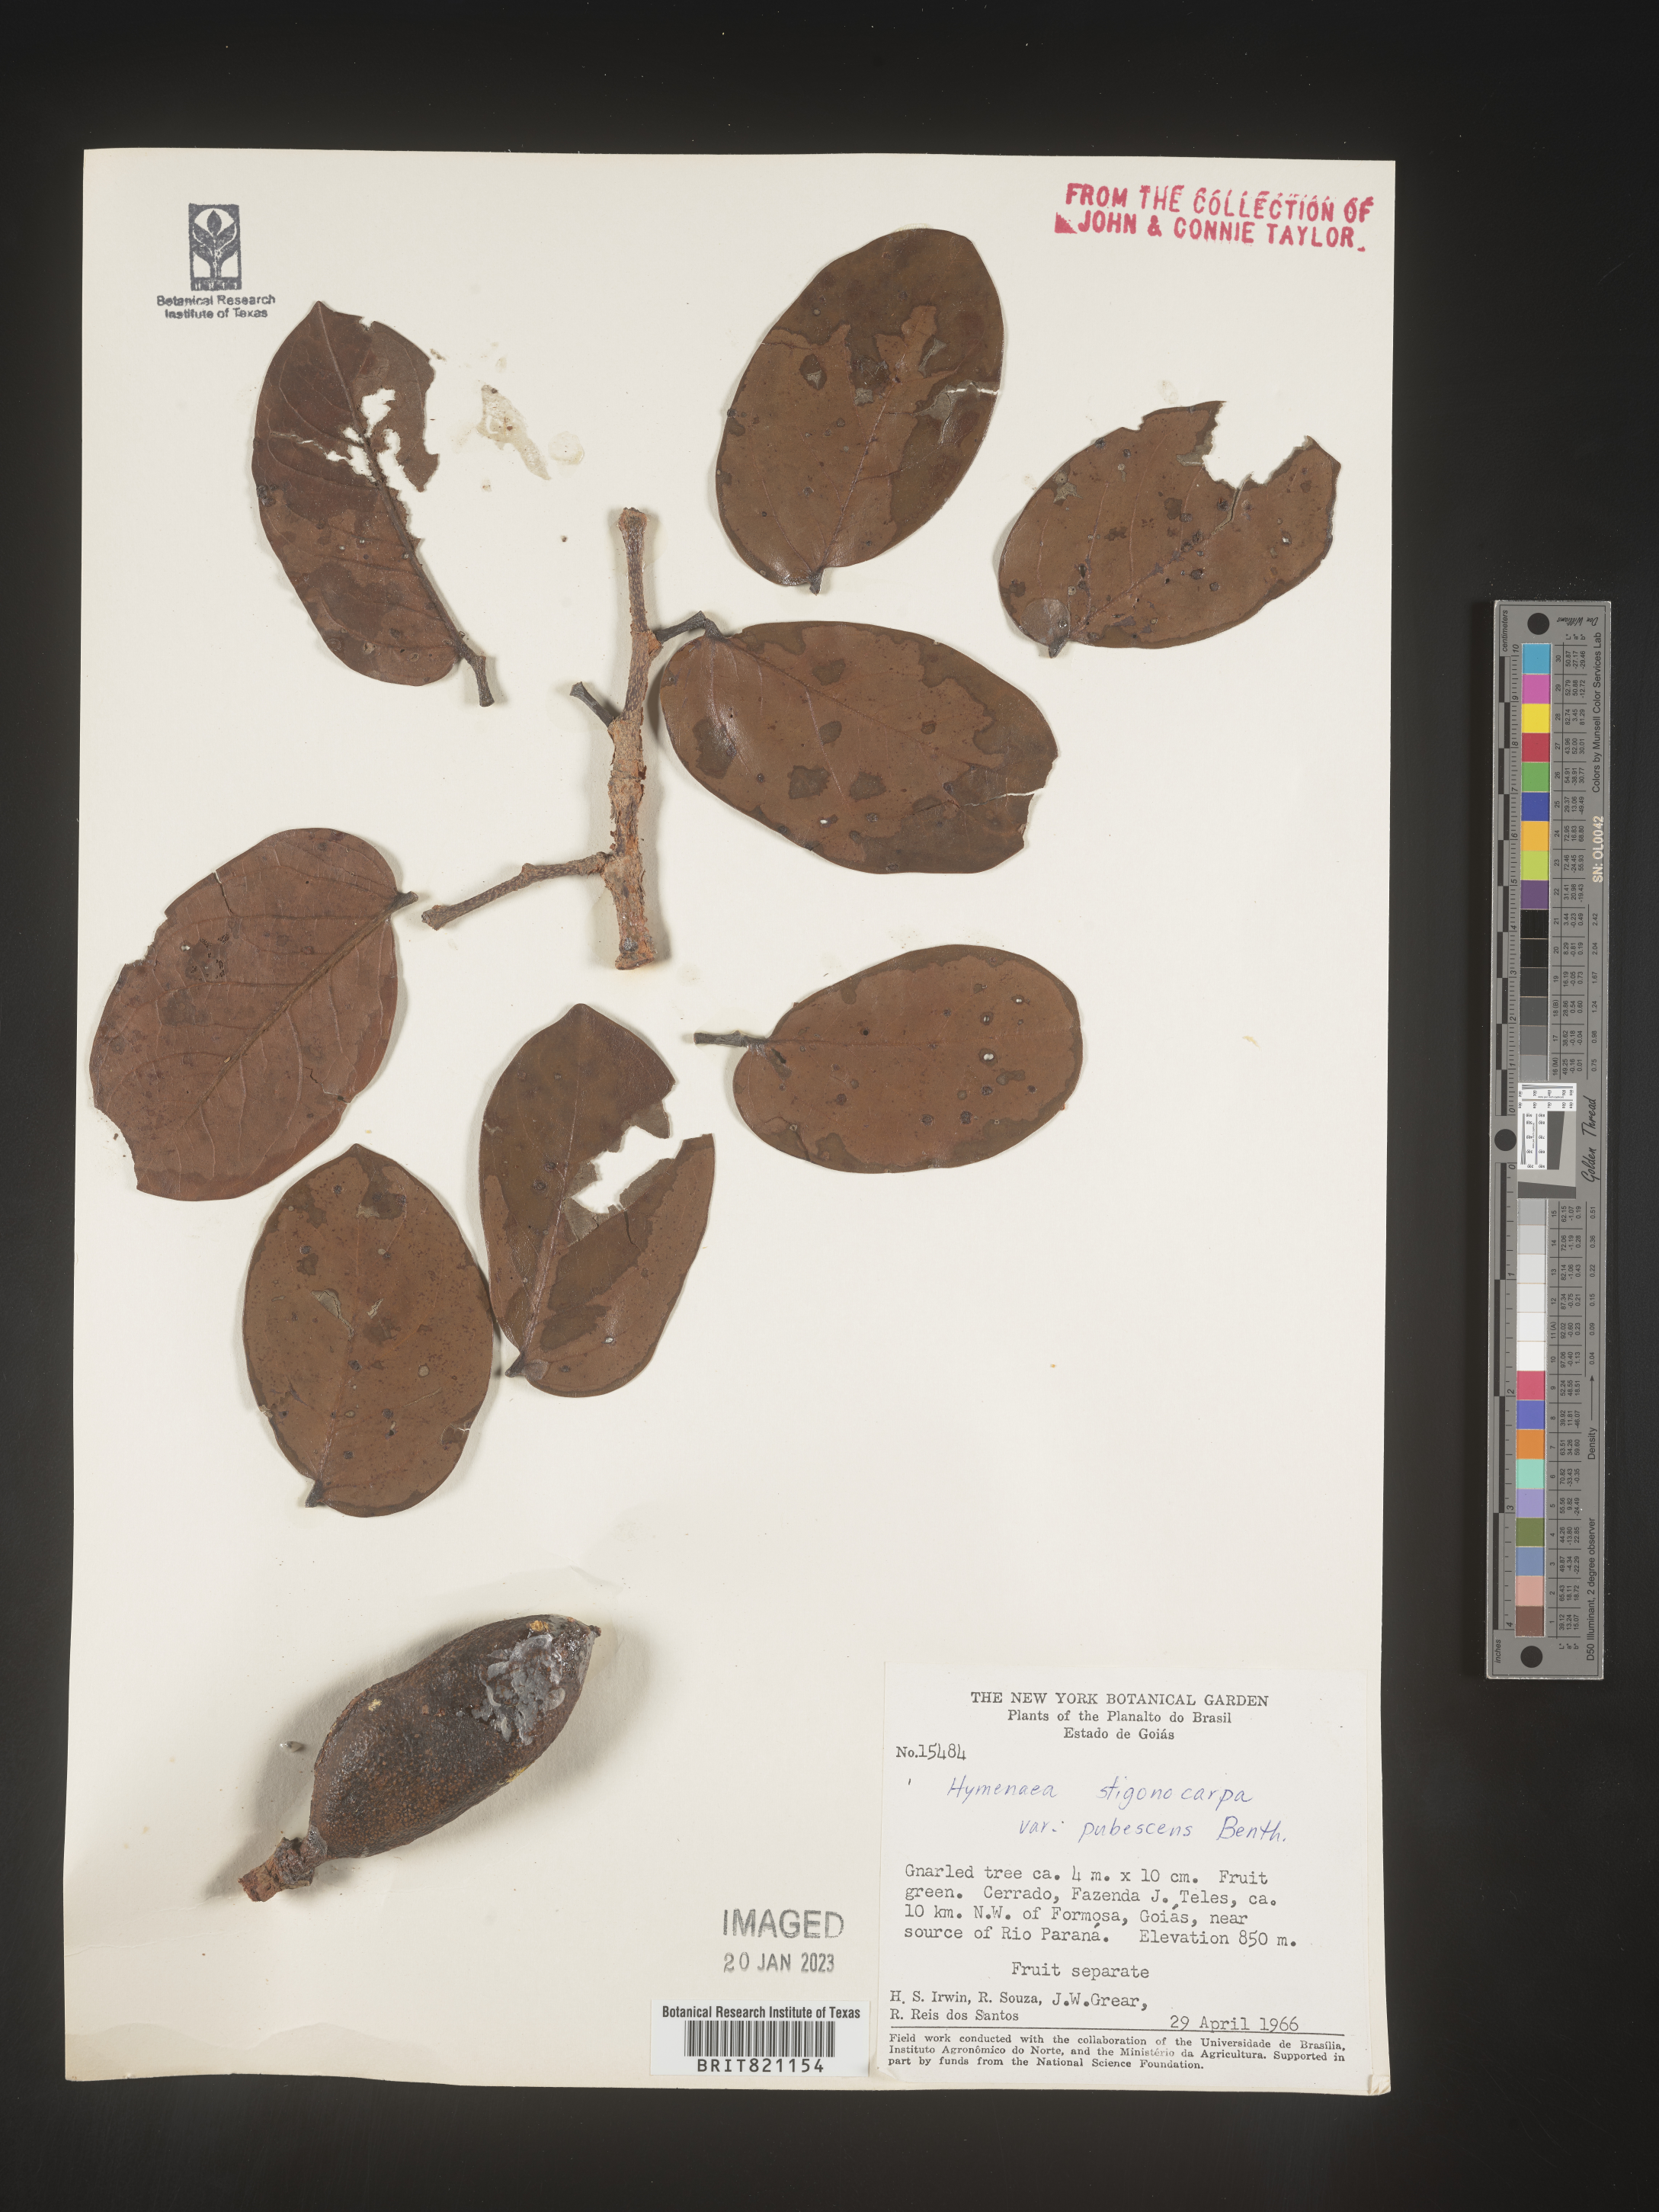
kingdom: Plantae
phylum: Tracheophyta
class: Magnoliopsida
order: Fabales
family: Fabaceae
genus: Hymenaea
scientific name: Hymenaea
